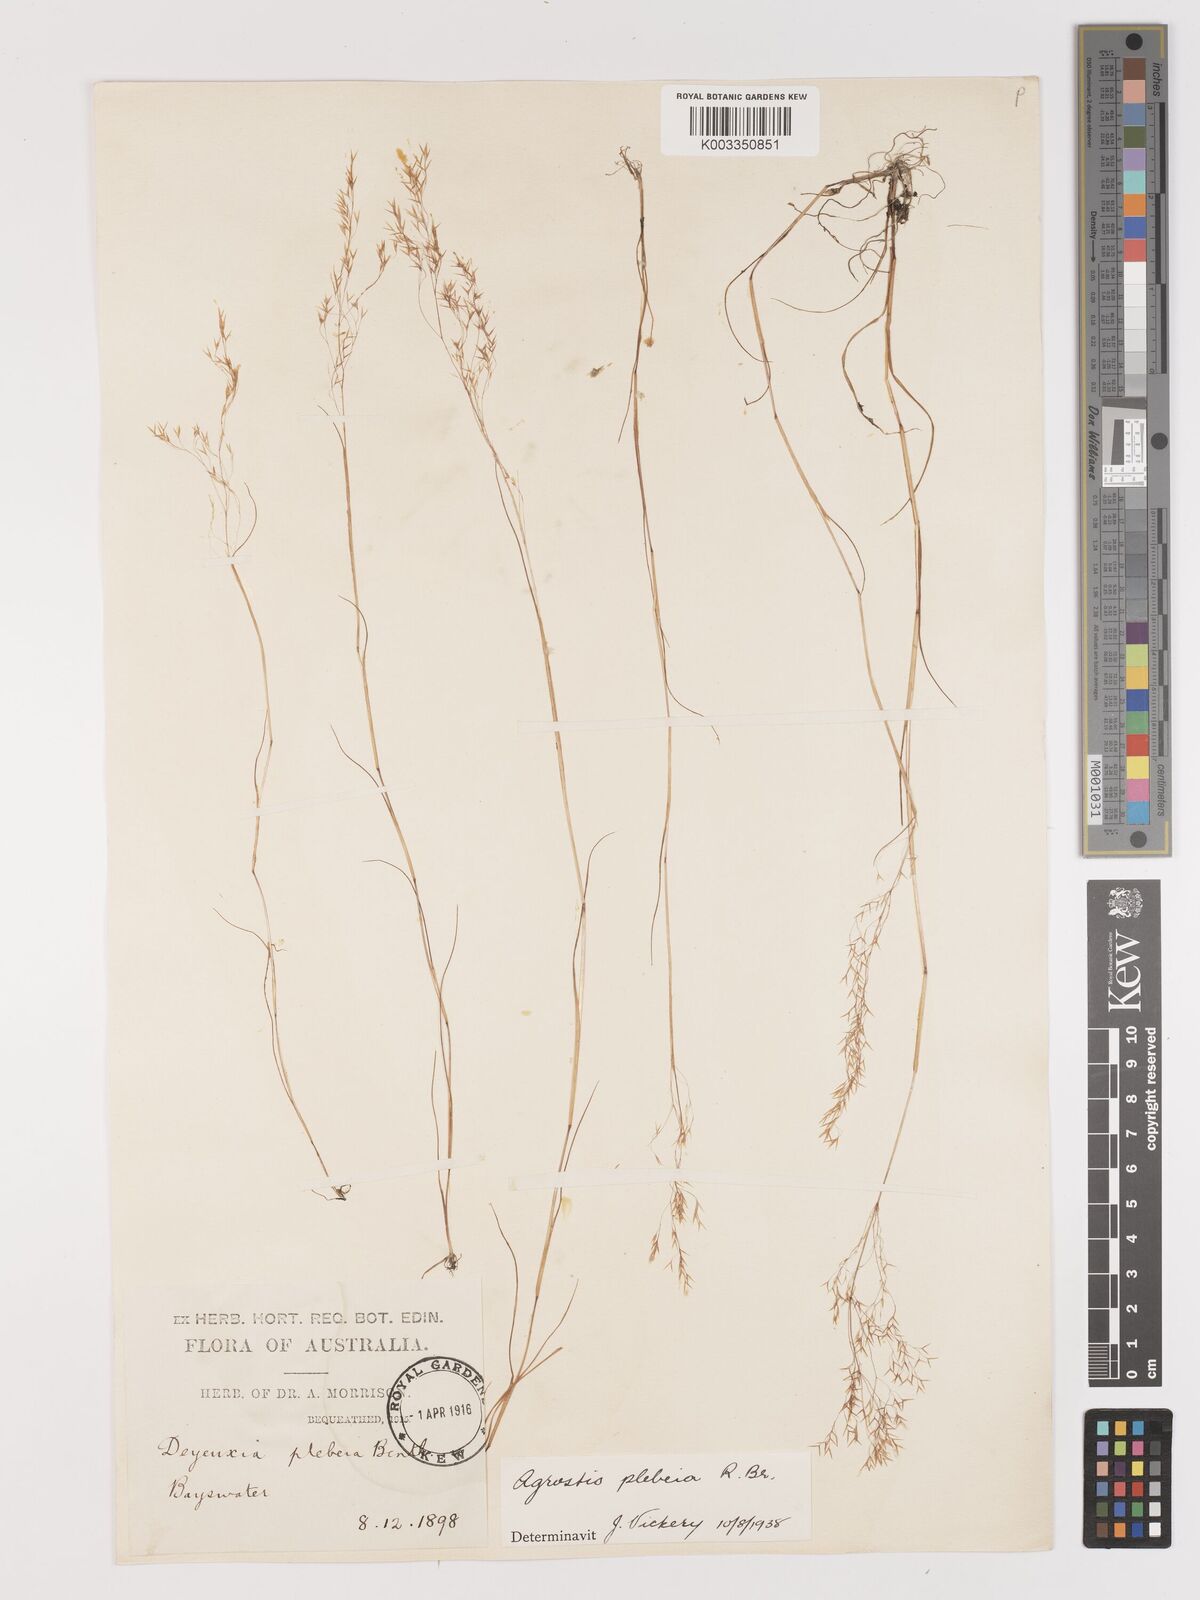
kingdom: Plantae
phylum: Tracheophyta
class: Liliopsida
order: Poales
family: Poaceae
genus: Lachnagrostis
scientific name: Lachnagrostis plebeia
